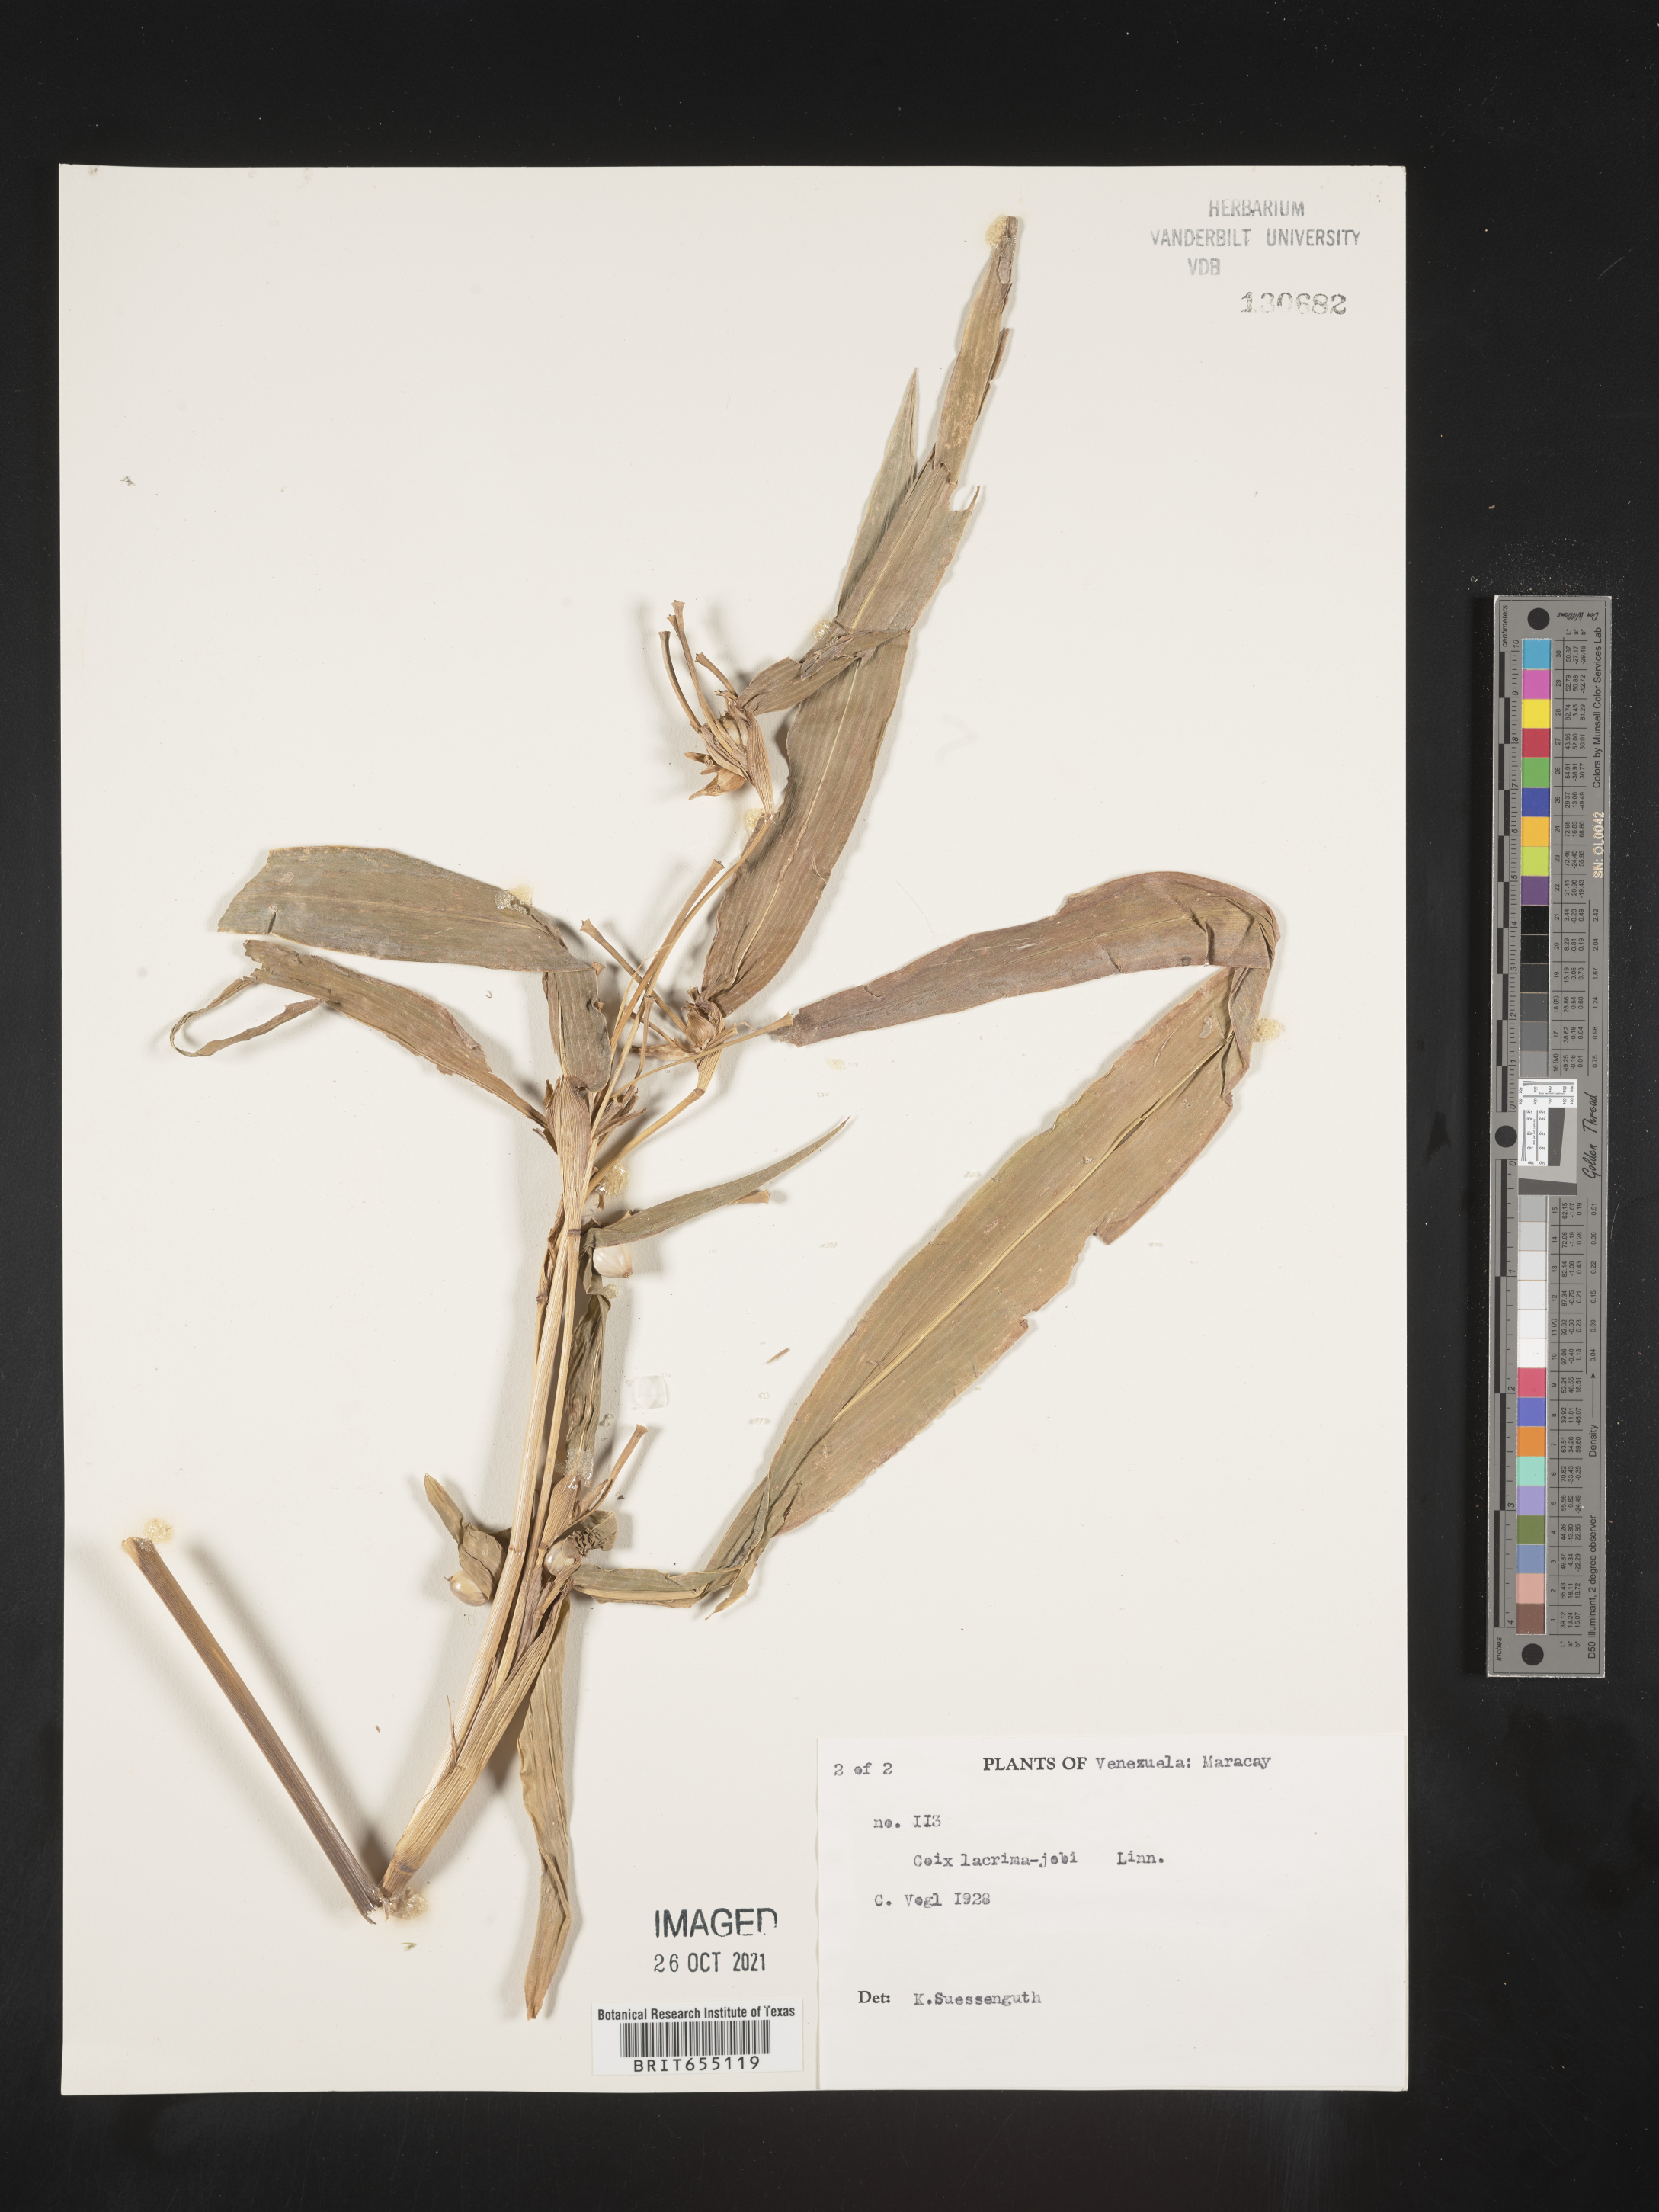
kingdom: Plantae
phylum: Tracheophyta
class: Liliopsida
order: Poales
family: Poaceae
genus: Coix
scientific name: Coix
